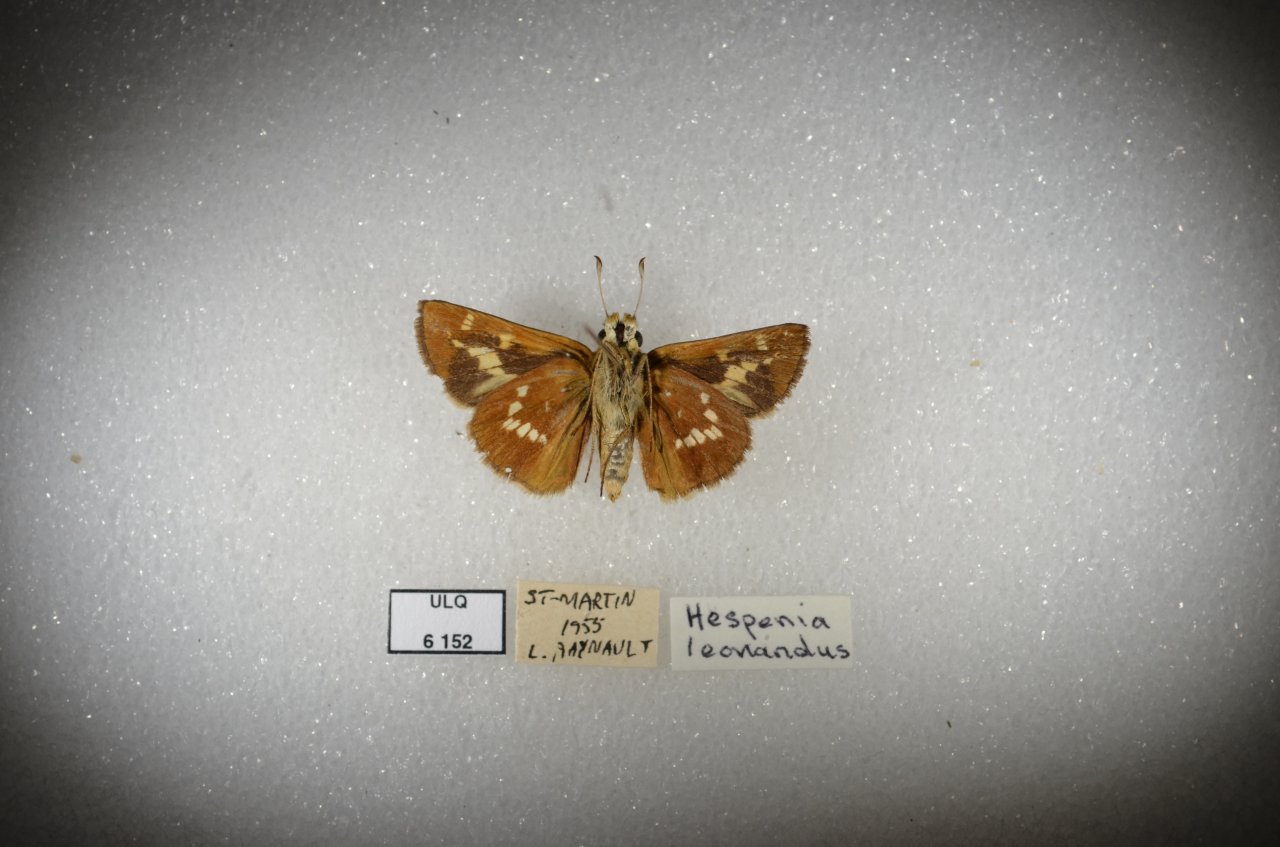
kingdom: Animalia
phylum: Arthropoda
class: Insecta
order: Lepidoptera
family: Hesperiidae
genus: Hesperia
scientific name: Hesperia leonardus
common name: Leonard's Skipper
